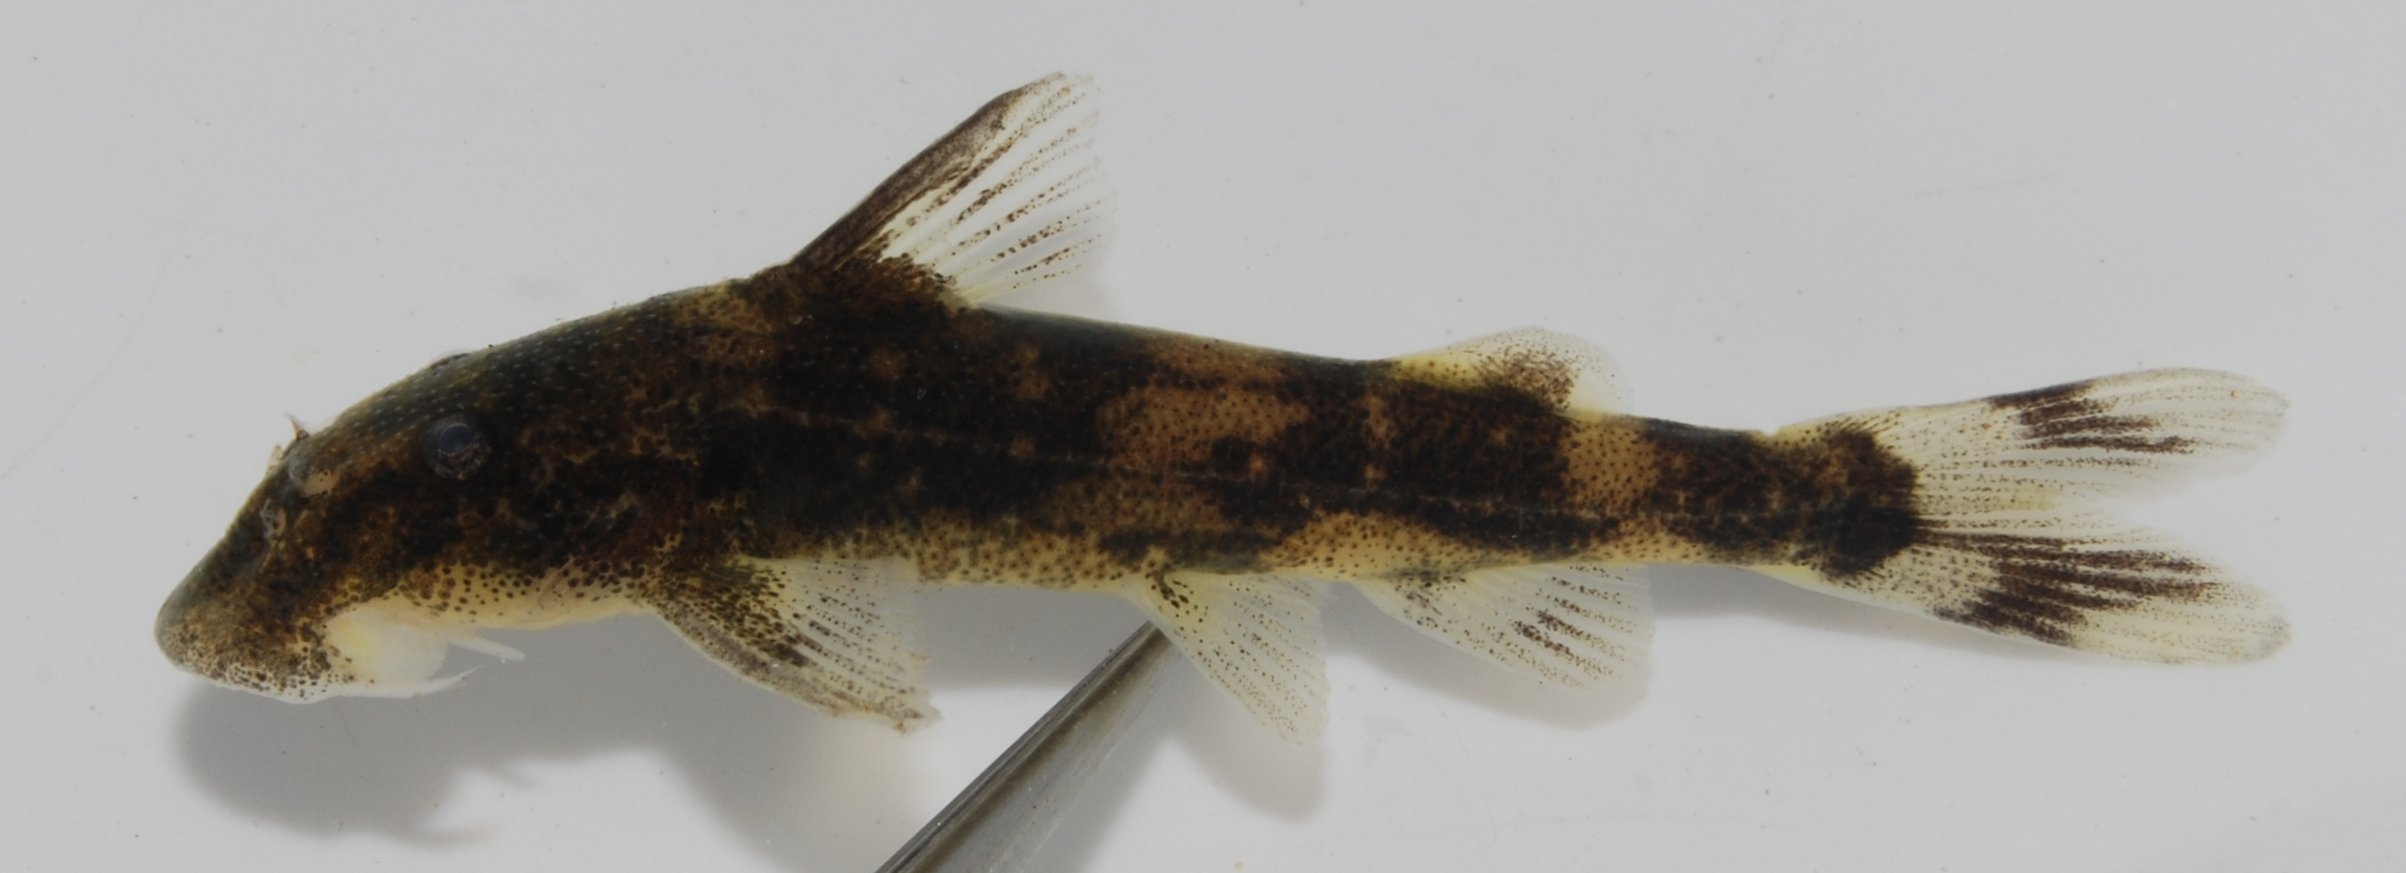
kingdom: Animalia
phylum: Chordata
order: Siluriformes
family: Mochokidae
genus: Chiloglanis
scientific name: Chiloglanis fasciatus
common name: Okavango suckermouth
